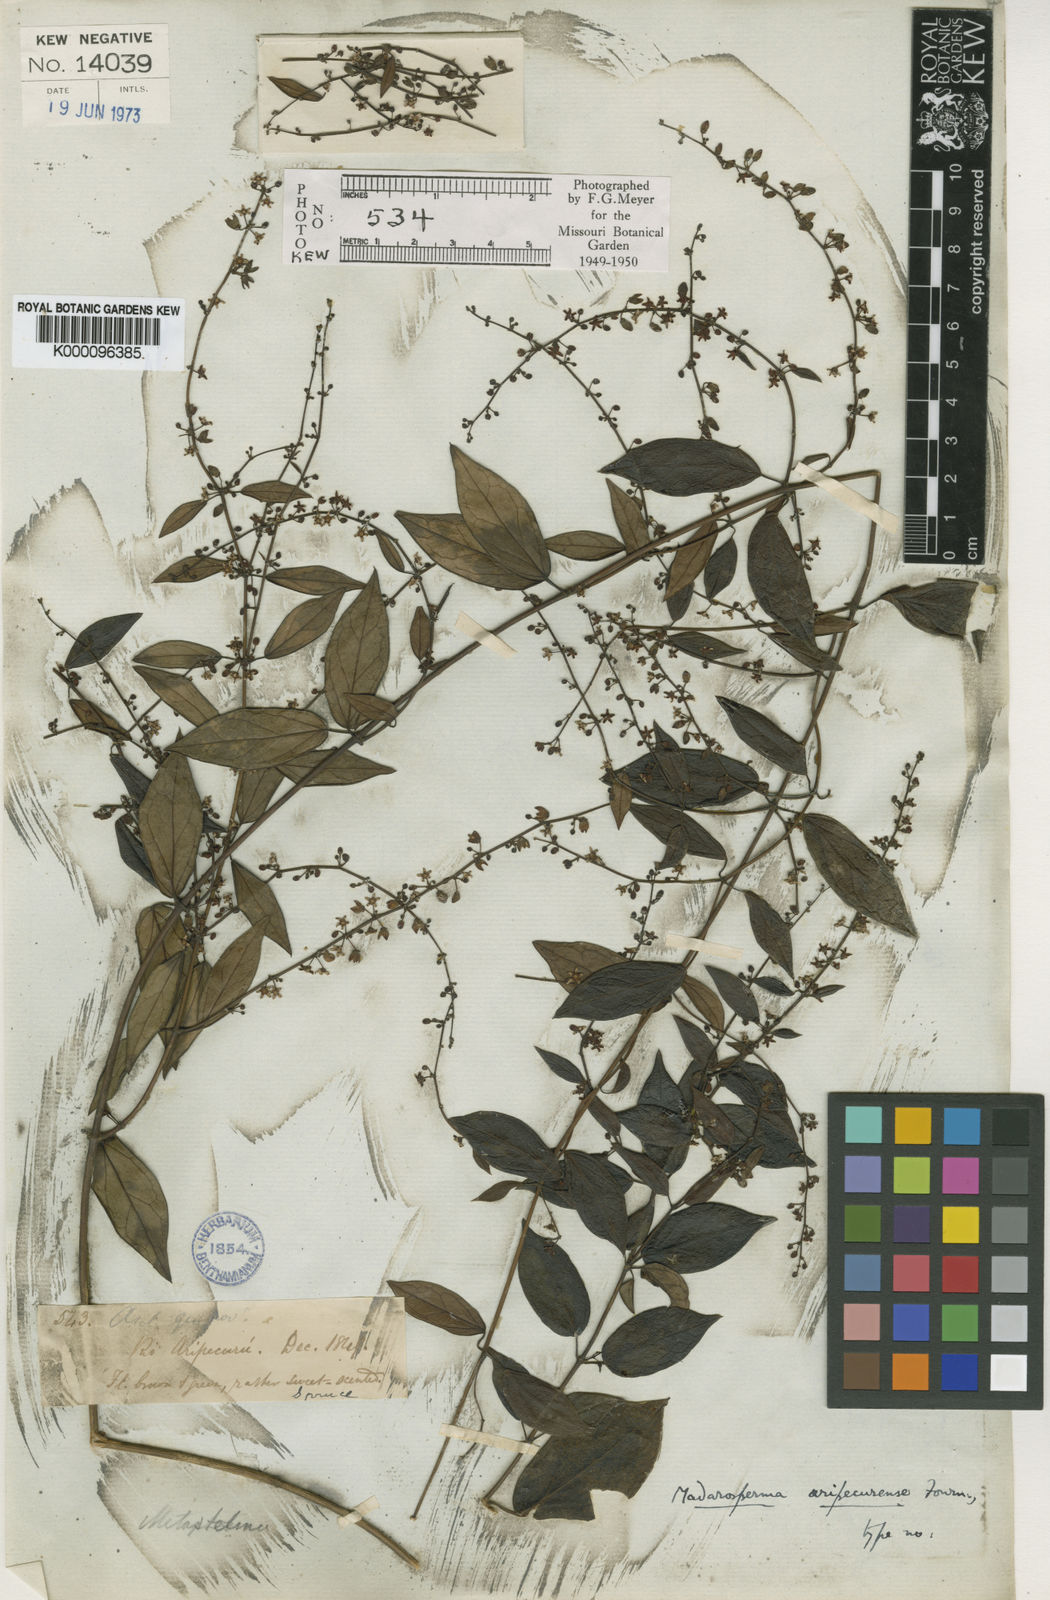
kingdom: Plantae
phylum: Tracheophyta
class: Magnoliopsida
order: Gentianales
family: Apocynaceae
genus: Tassadia
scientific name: Tassadia martiana
